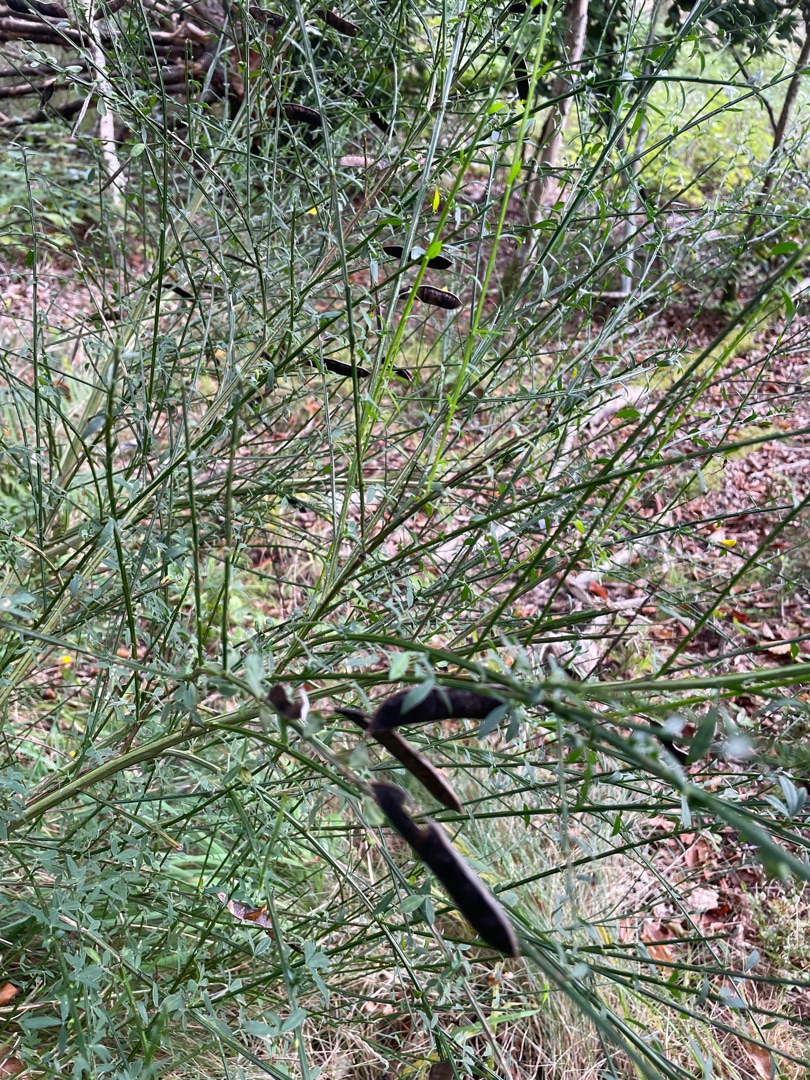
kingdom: Plantae
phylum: Tracheophyta
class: Magnoliopsida
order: Fabales
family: Fabaceae
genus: Cytisus
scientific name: Cytisus scoparius
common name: Almindelig gyvel
